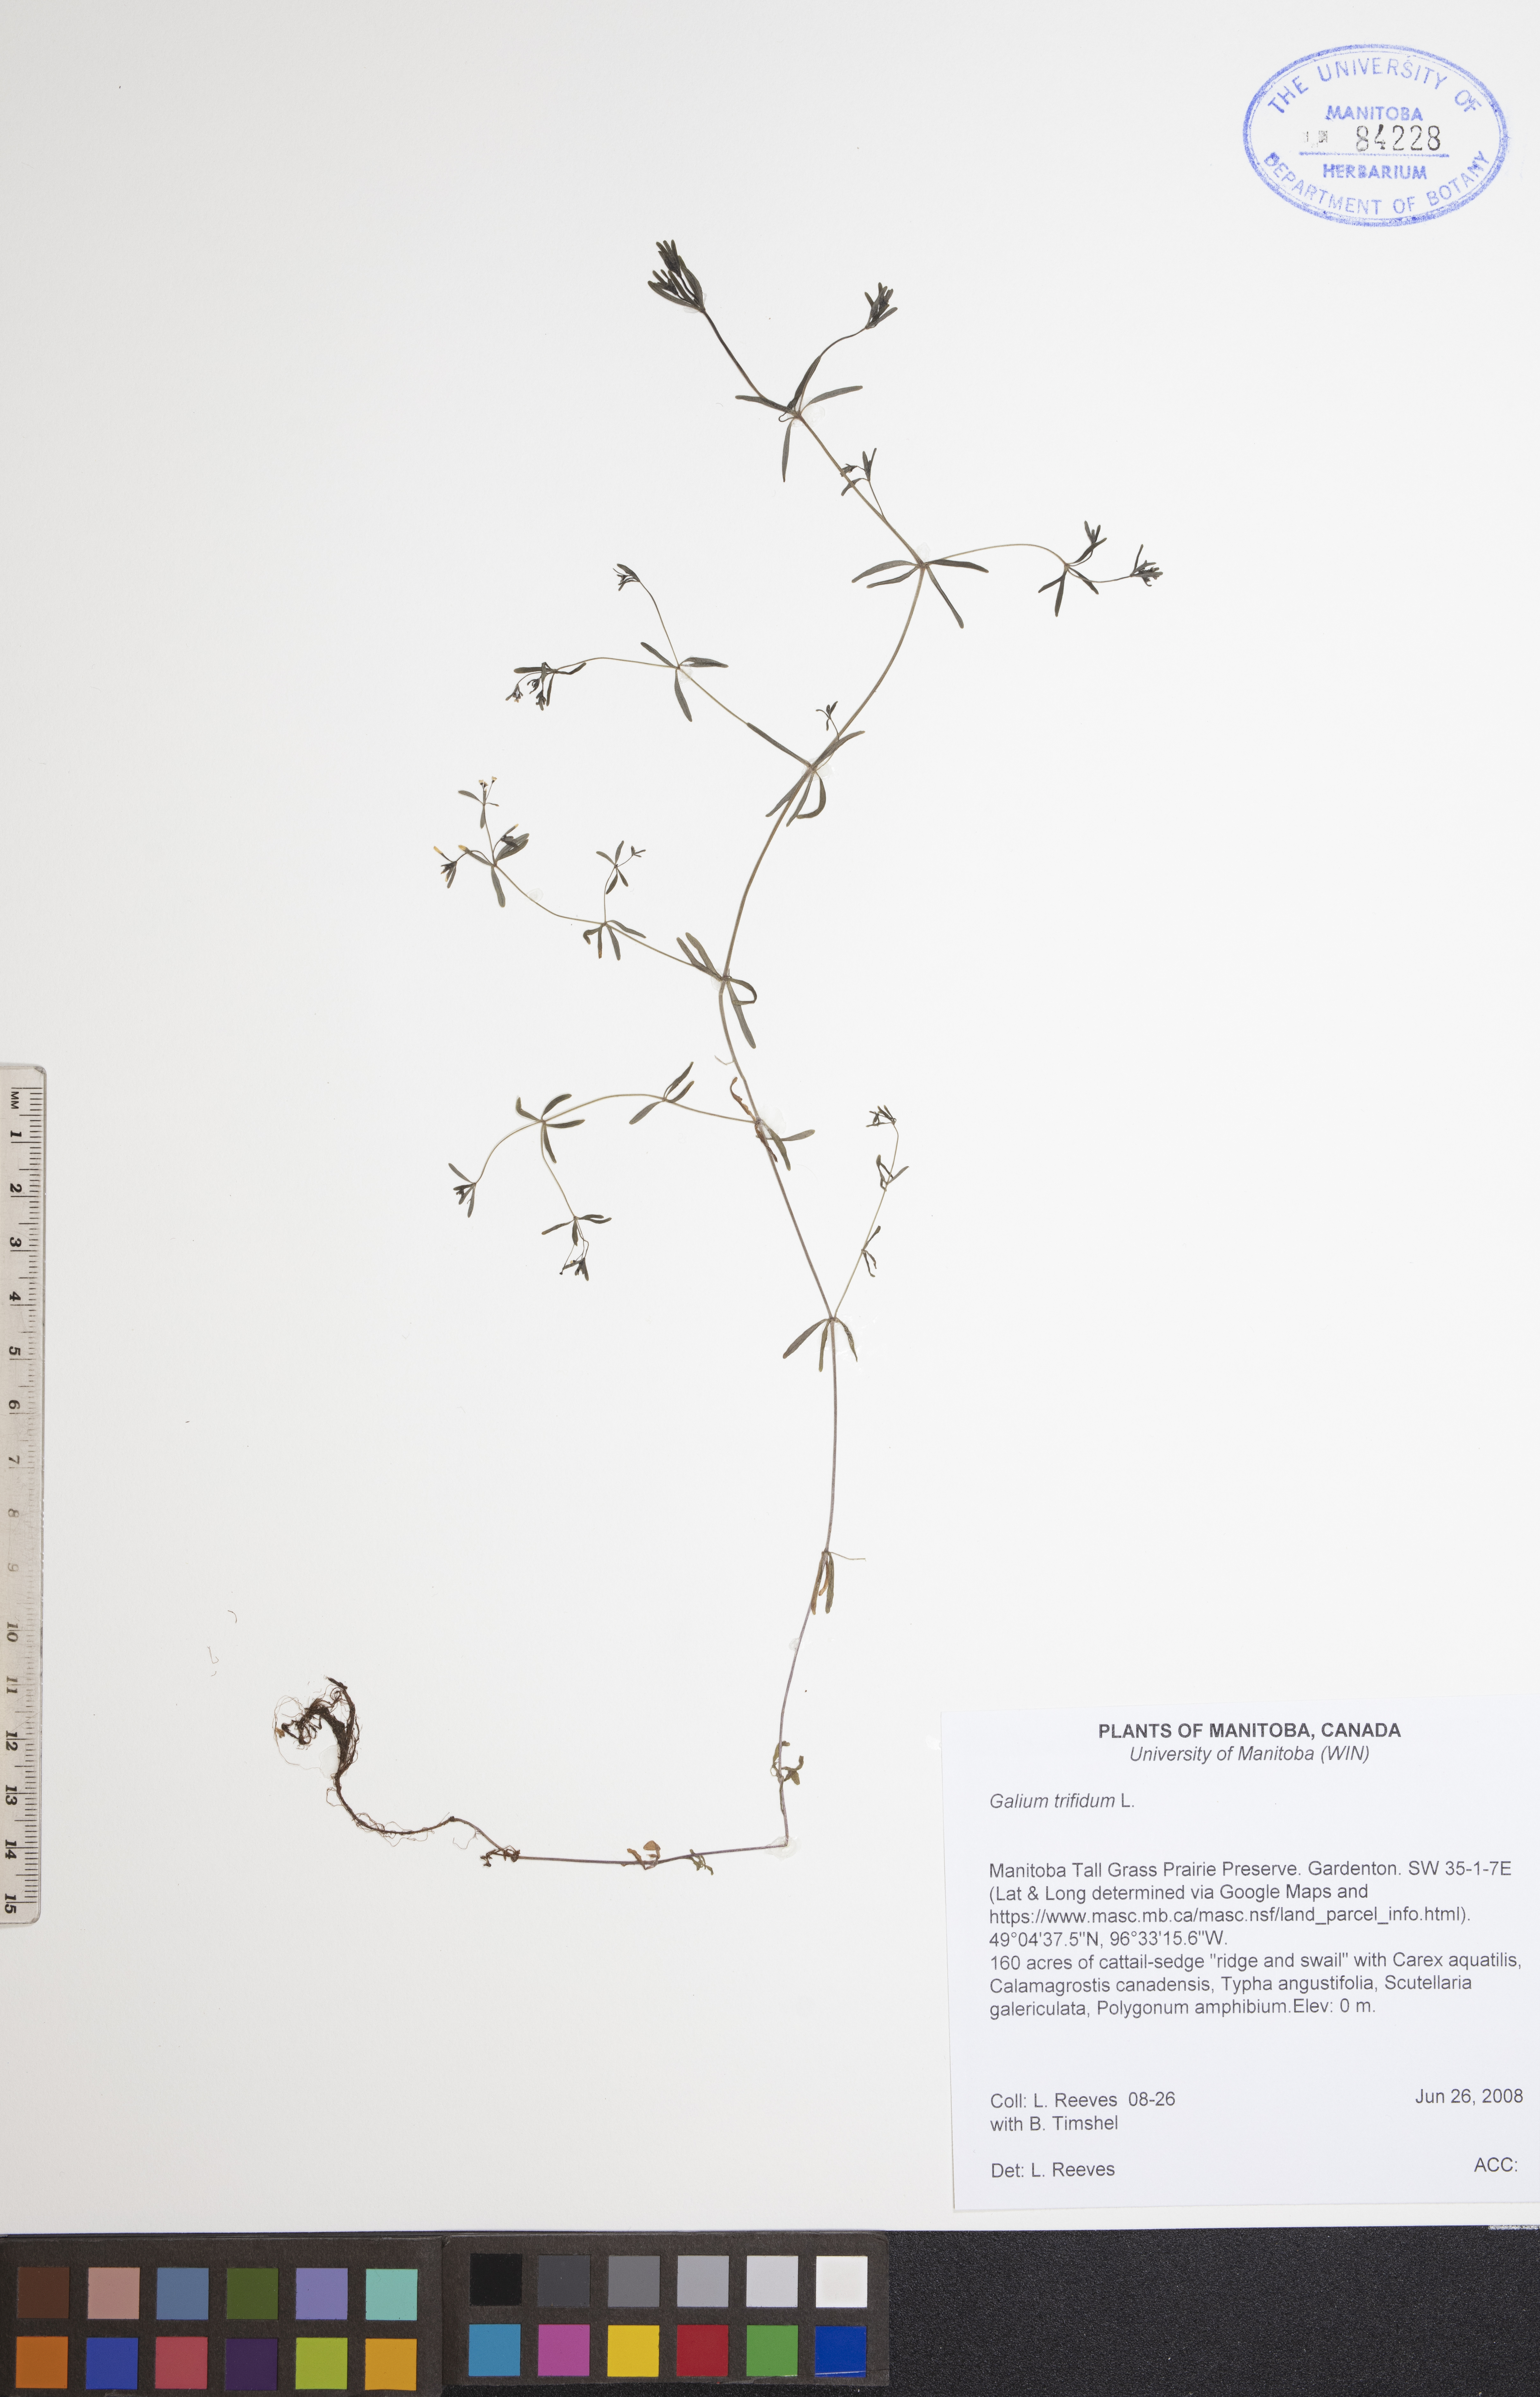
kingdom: Plantae
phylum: Tracheophyta
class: Magnoliopsida
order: Gentianales
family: Rubiaceae
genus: Galium
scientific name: Galium trifidum
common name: Small bedstraw
